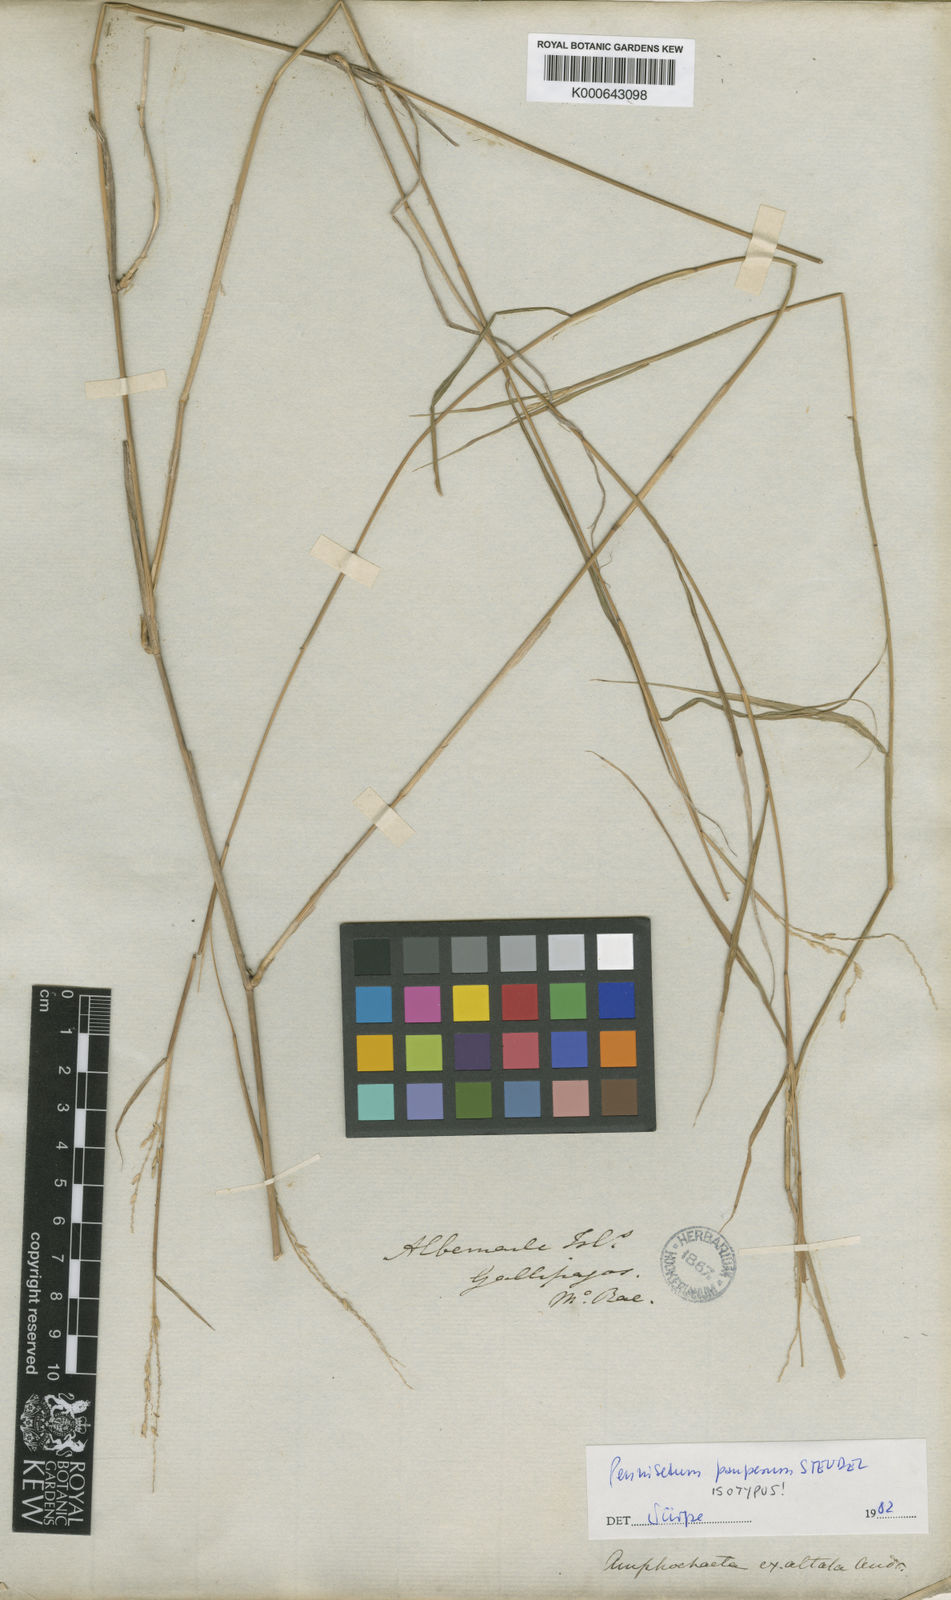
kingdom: Plantae
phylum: Tracheophyta
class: Liliopsida
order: Poales
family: Poaceae
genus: Cenchrus
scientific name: Cenchrus pauper
